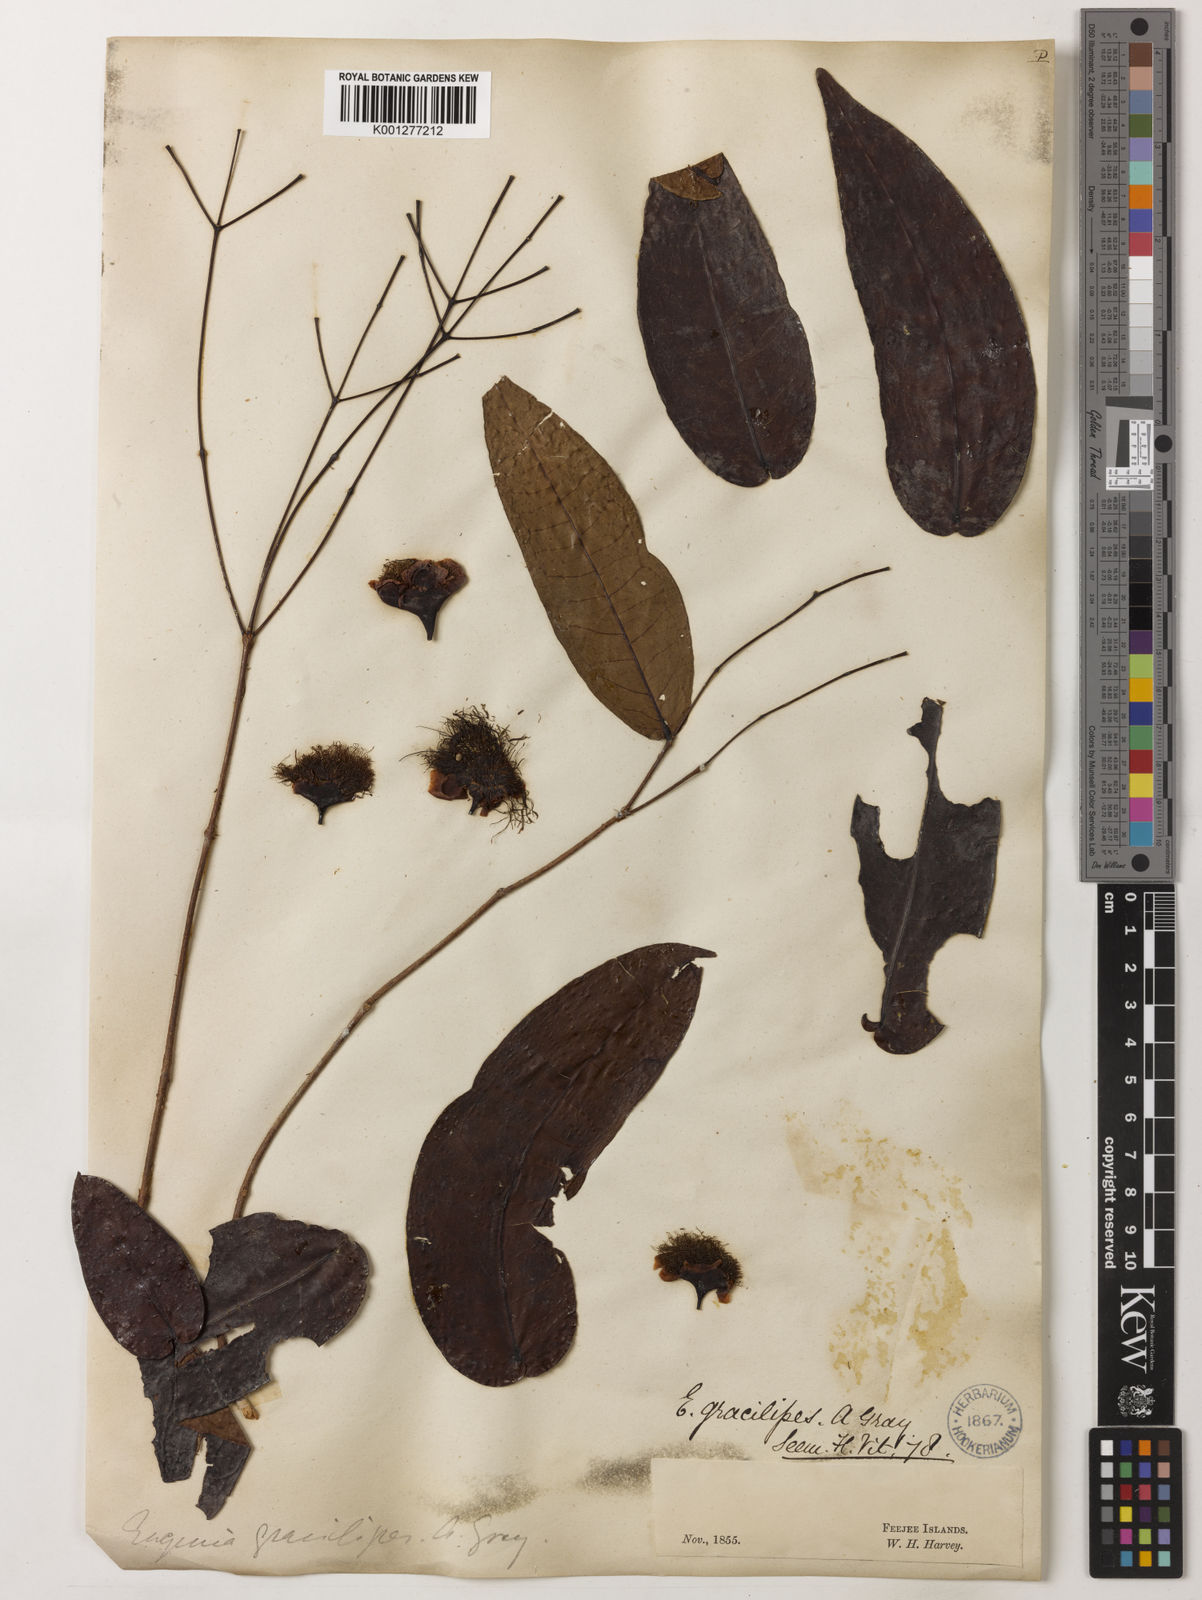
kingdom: Plantae
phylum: Tracheophyta
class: Magnoliopsida
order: Myrtales
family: Myrtaceae
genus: Syzygium
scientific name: Syzygium gracilipes
